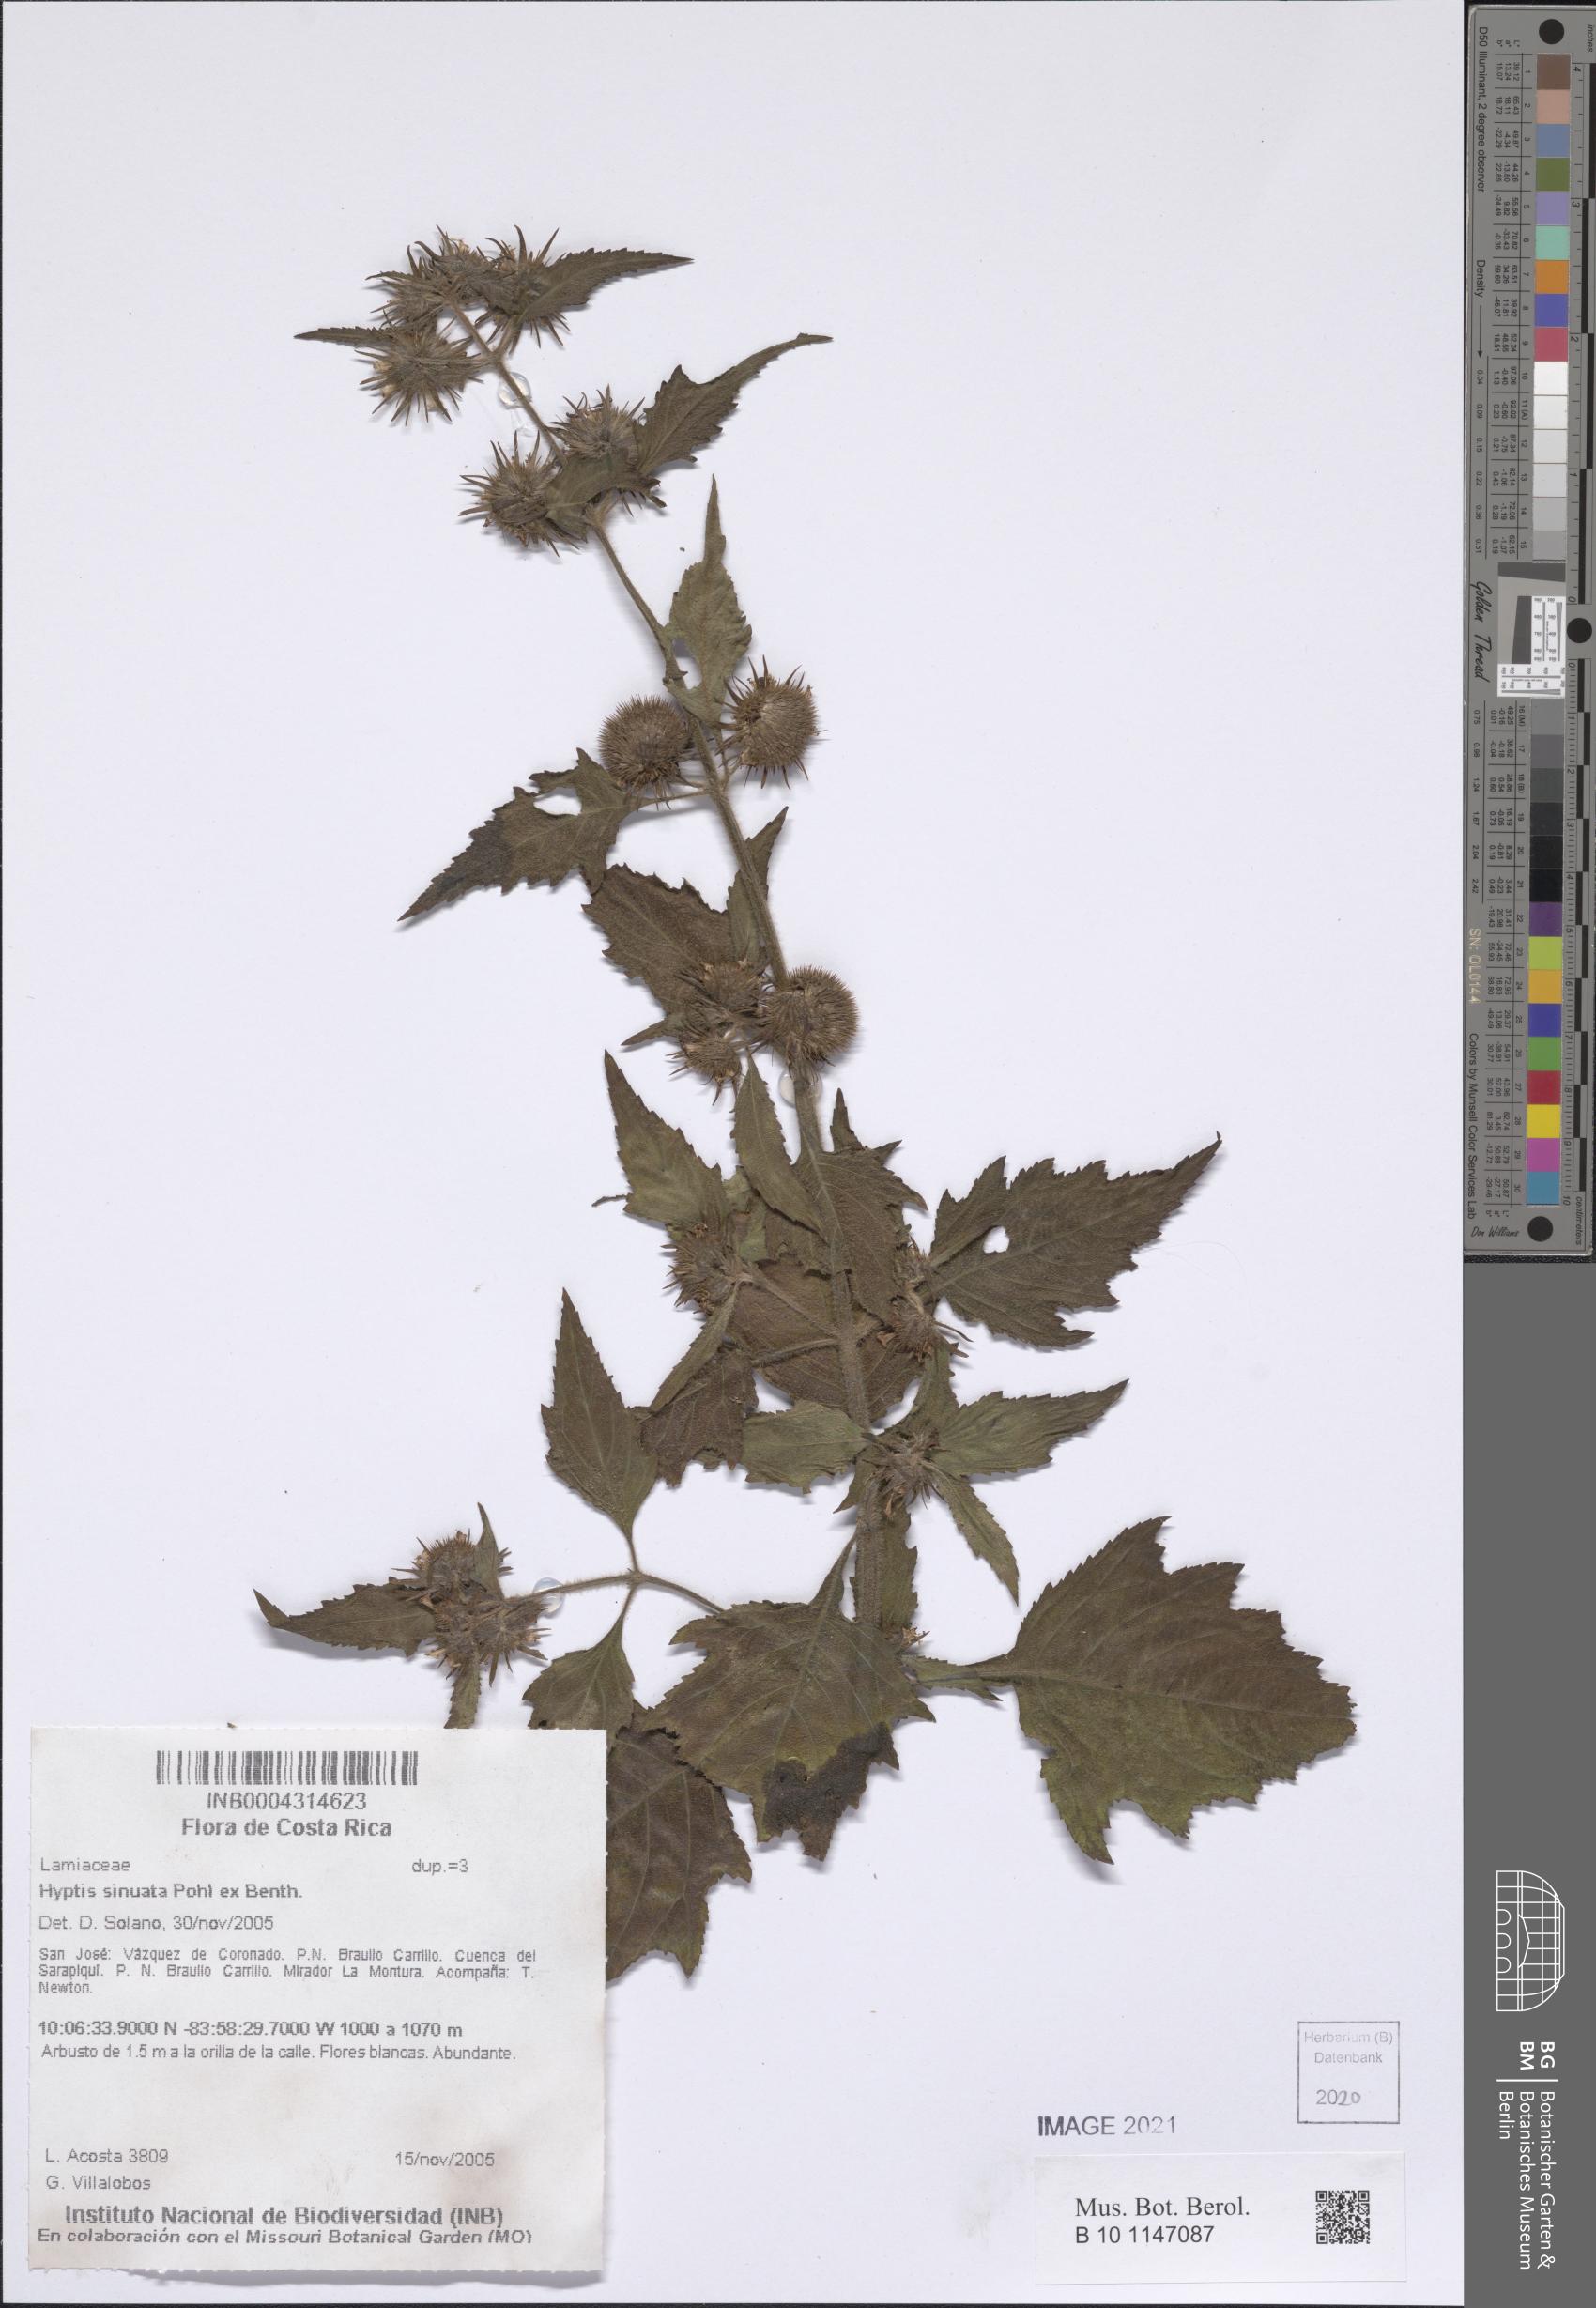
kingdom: Plantae
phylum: Tracheophyta
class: Magnoliopsida
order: Lamiales
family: Lamiaceae
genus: Hyptis
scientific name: Hyptis sinuata
